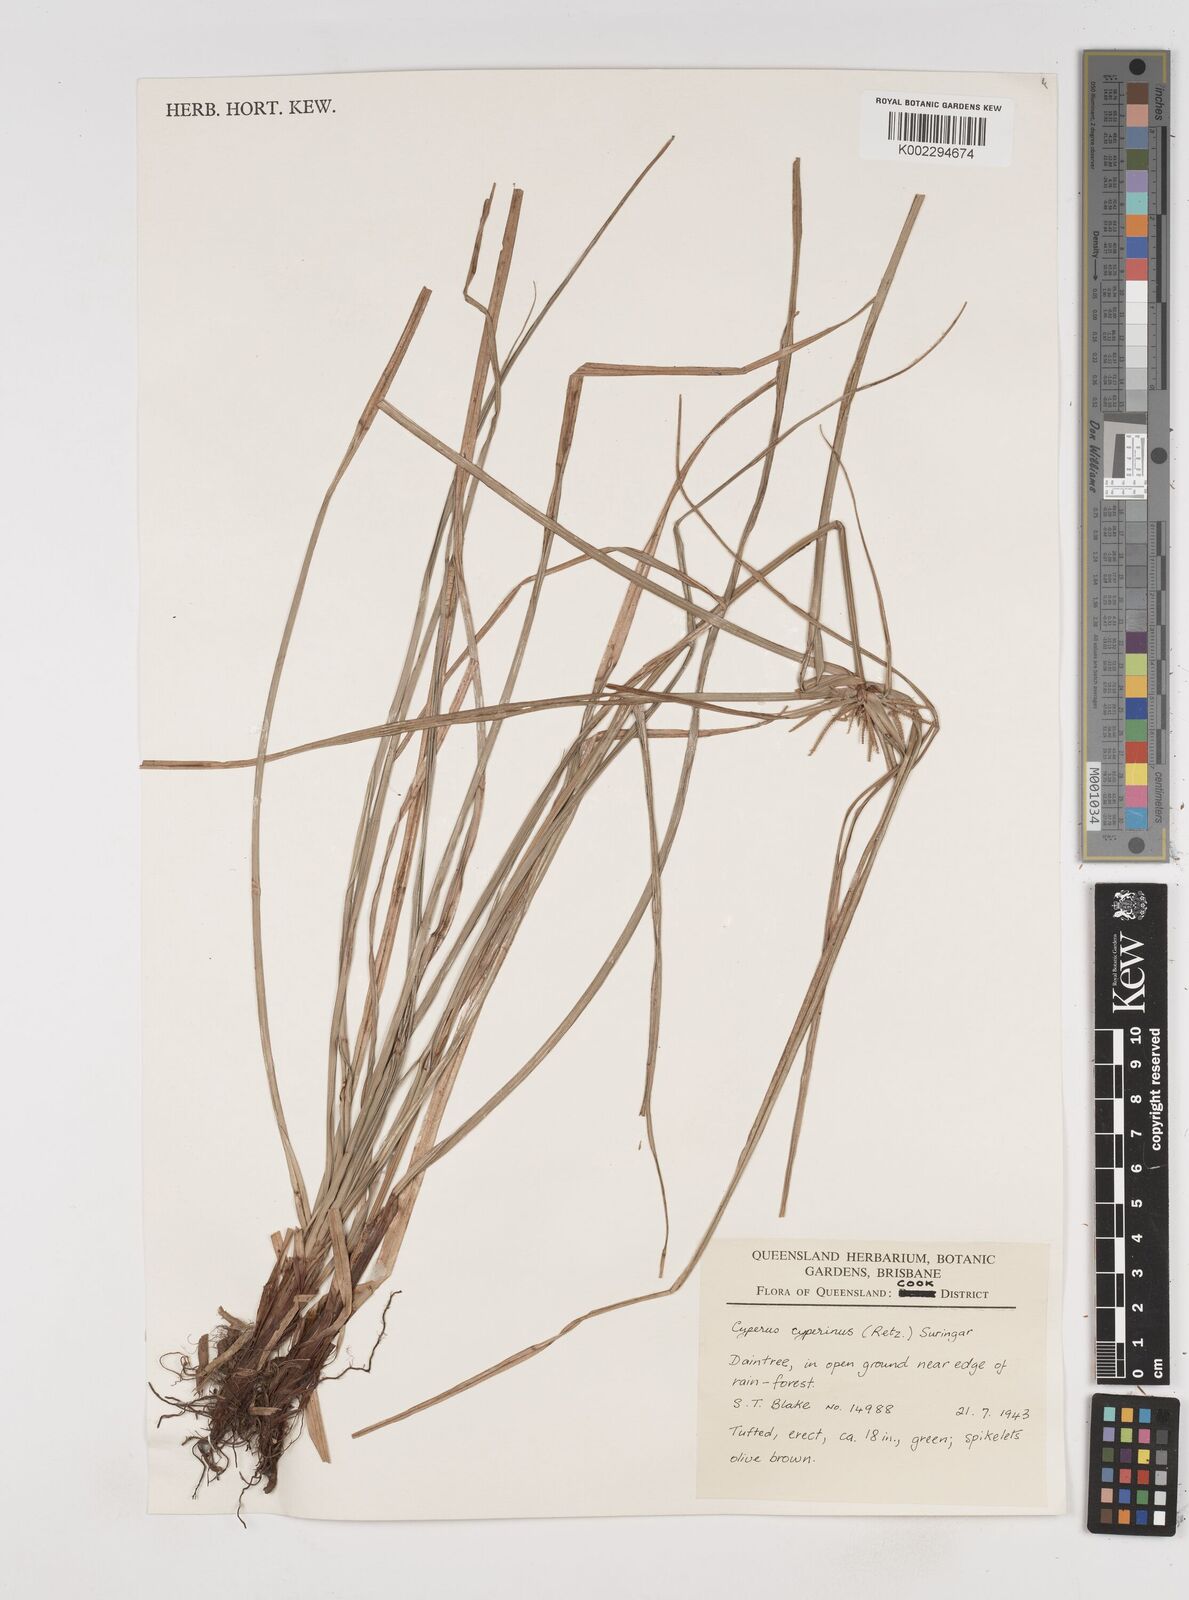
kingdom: Plantae
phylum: Tracheophyta
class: Liliopsida
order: Poales
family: Cyperaceae
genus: Cyperus
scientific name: Cyperus cyperinus
